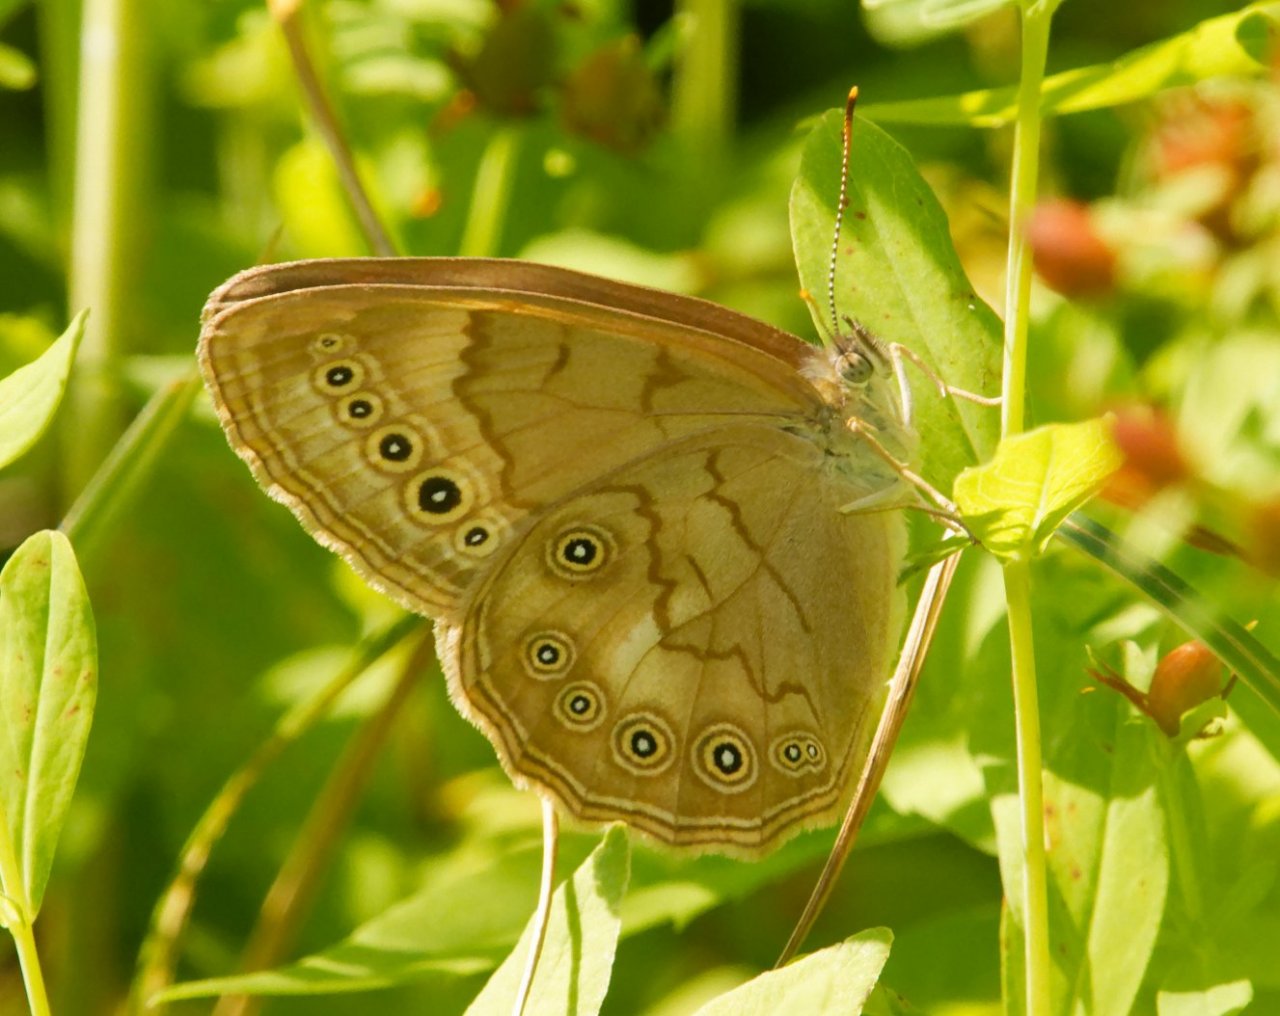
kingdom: Animalia
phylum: Arthropoda
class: Insecta
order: Lepidoptera
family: Nymphalidae
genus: Lethe
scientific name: Lethe eurydice
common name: Eyed Brown
